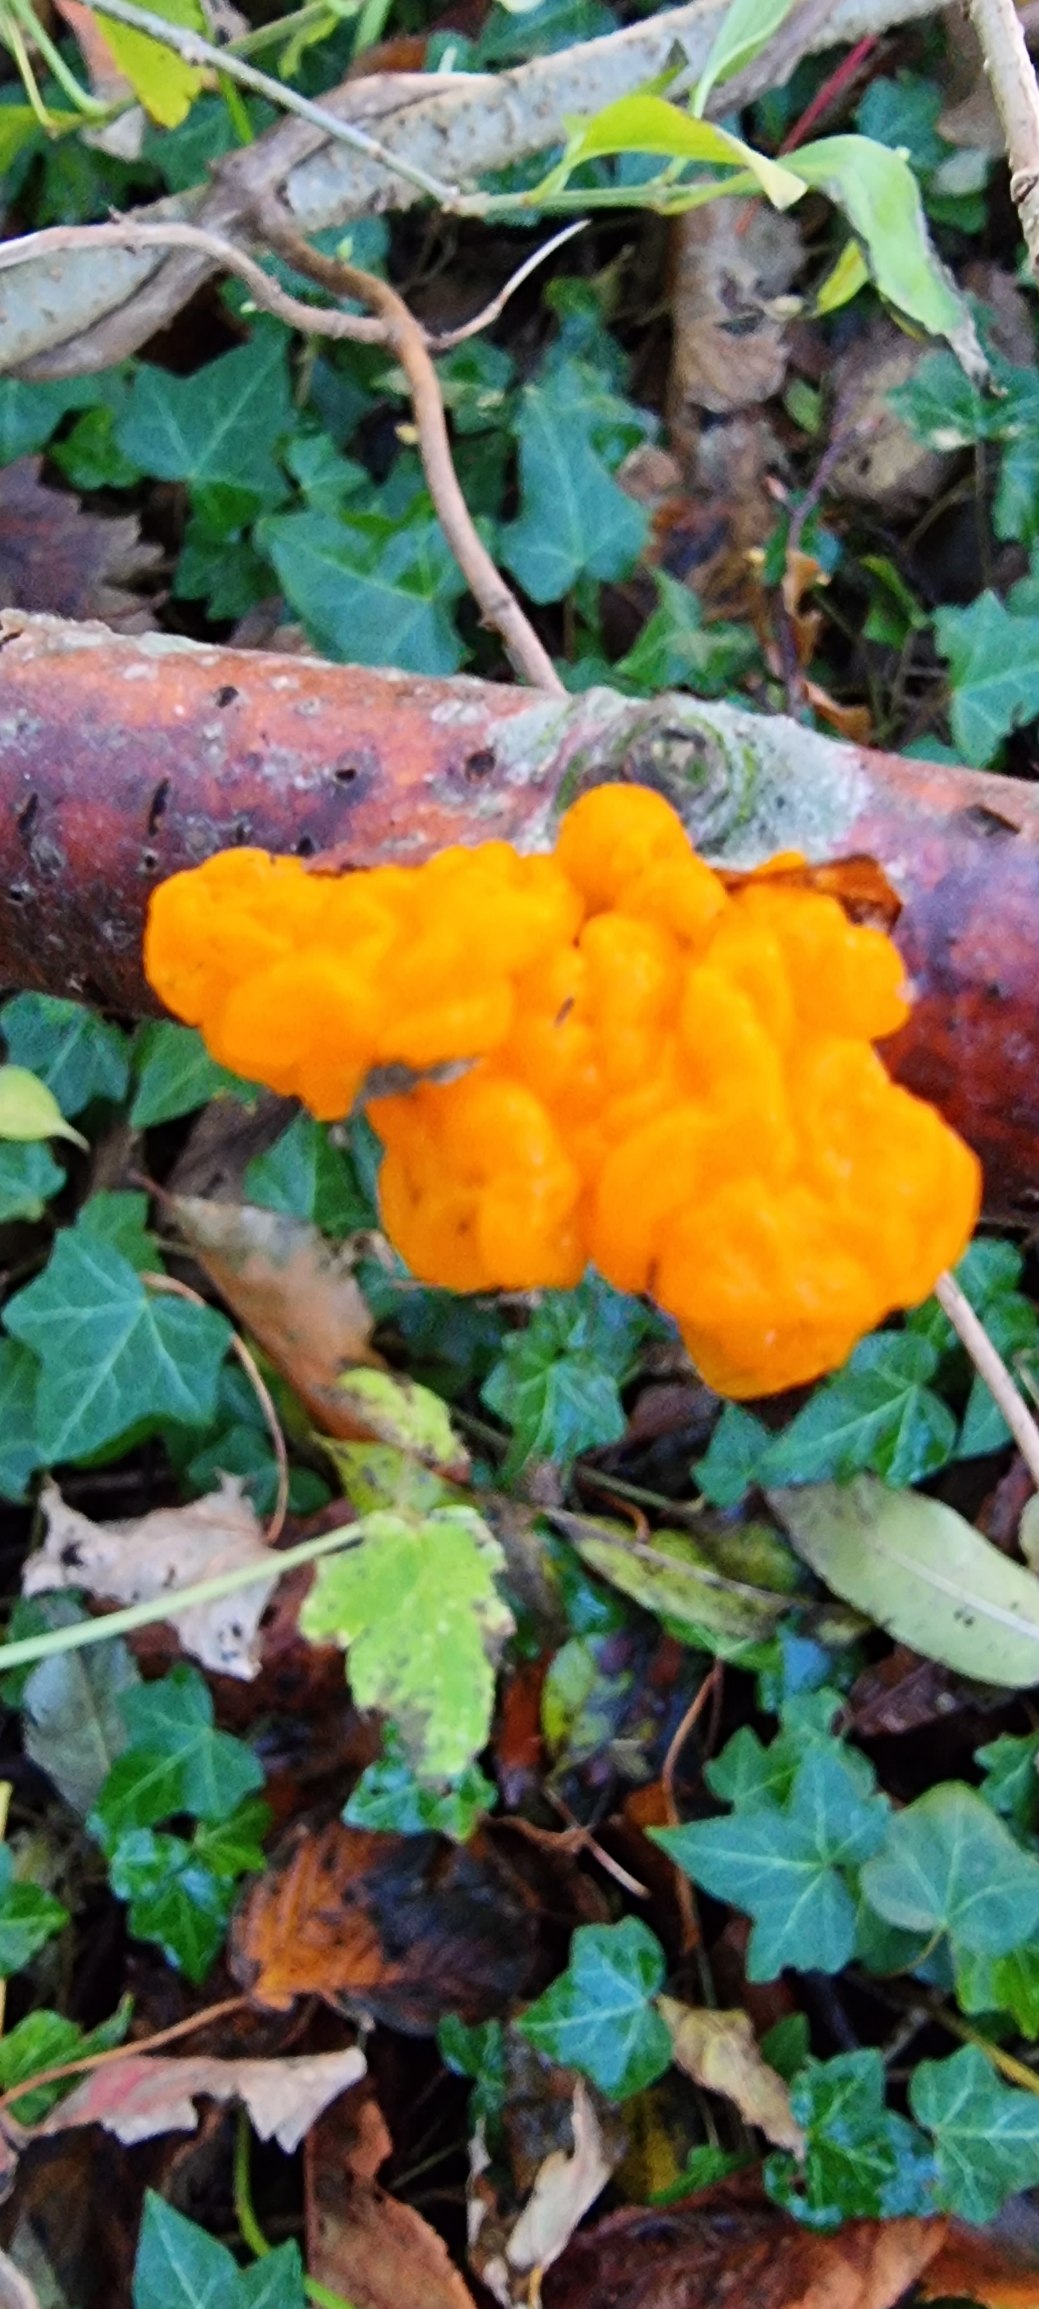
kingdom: Fungi
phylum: Basidiomycota
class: Tremellomycetes
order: Tremellales
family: Tremellaceae
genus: Tremella
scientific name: Tremella mesenterica
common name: Gul bævresvamp
